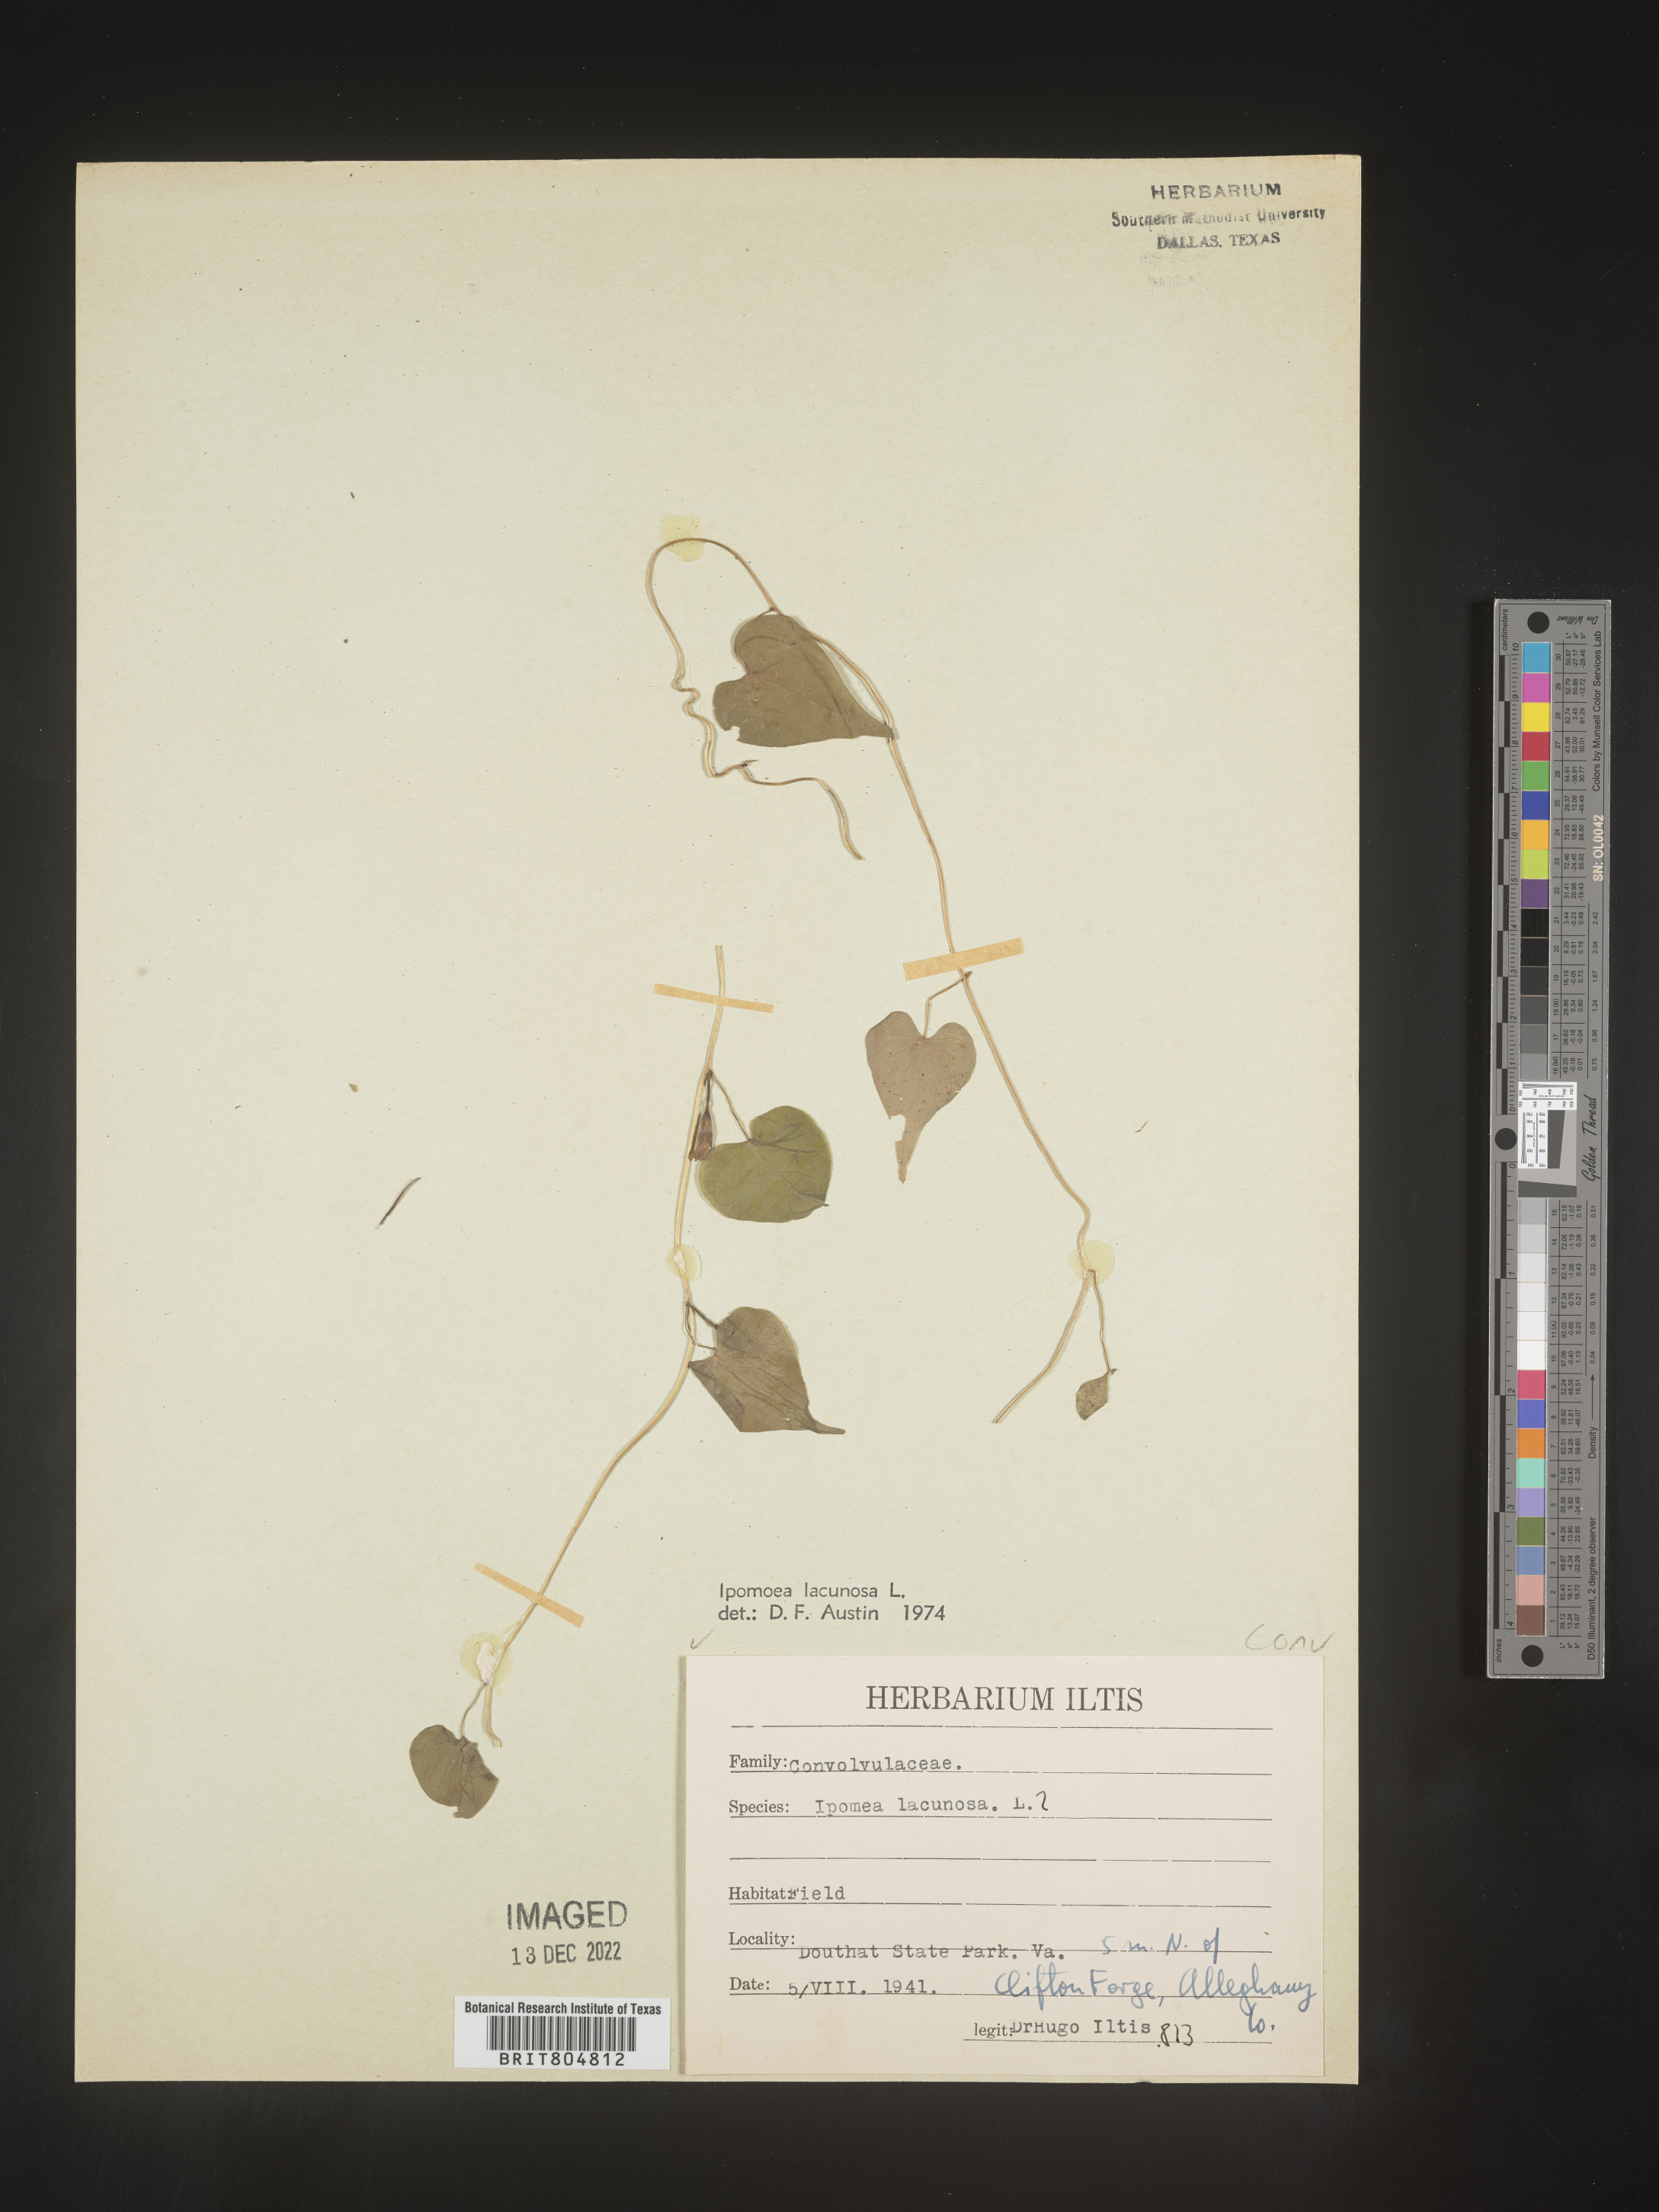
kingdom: Plantae
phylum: Tracheophyta
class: Magnoliopsida
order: Solanales
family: Convolvulaceae
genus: Ipomoea
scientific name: Ipomoea lacunosa
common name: White morning-glory
